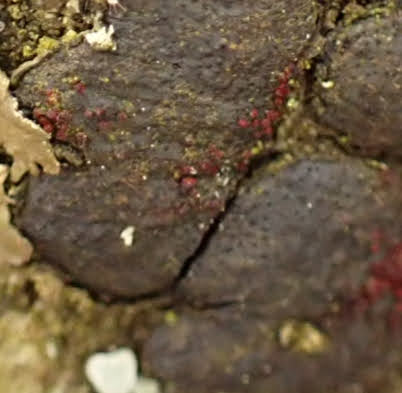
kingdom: Fungi
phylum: Ascomycota
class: Sordariomycetes
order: Hypocreales
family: Nectriaceae
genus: Dialonectria
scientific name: Dialonectria diatrypicola
